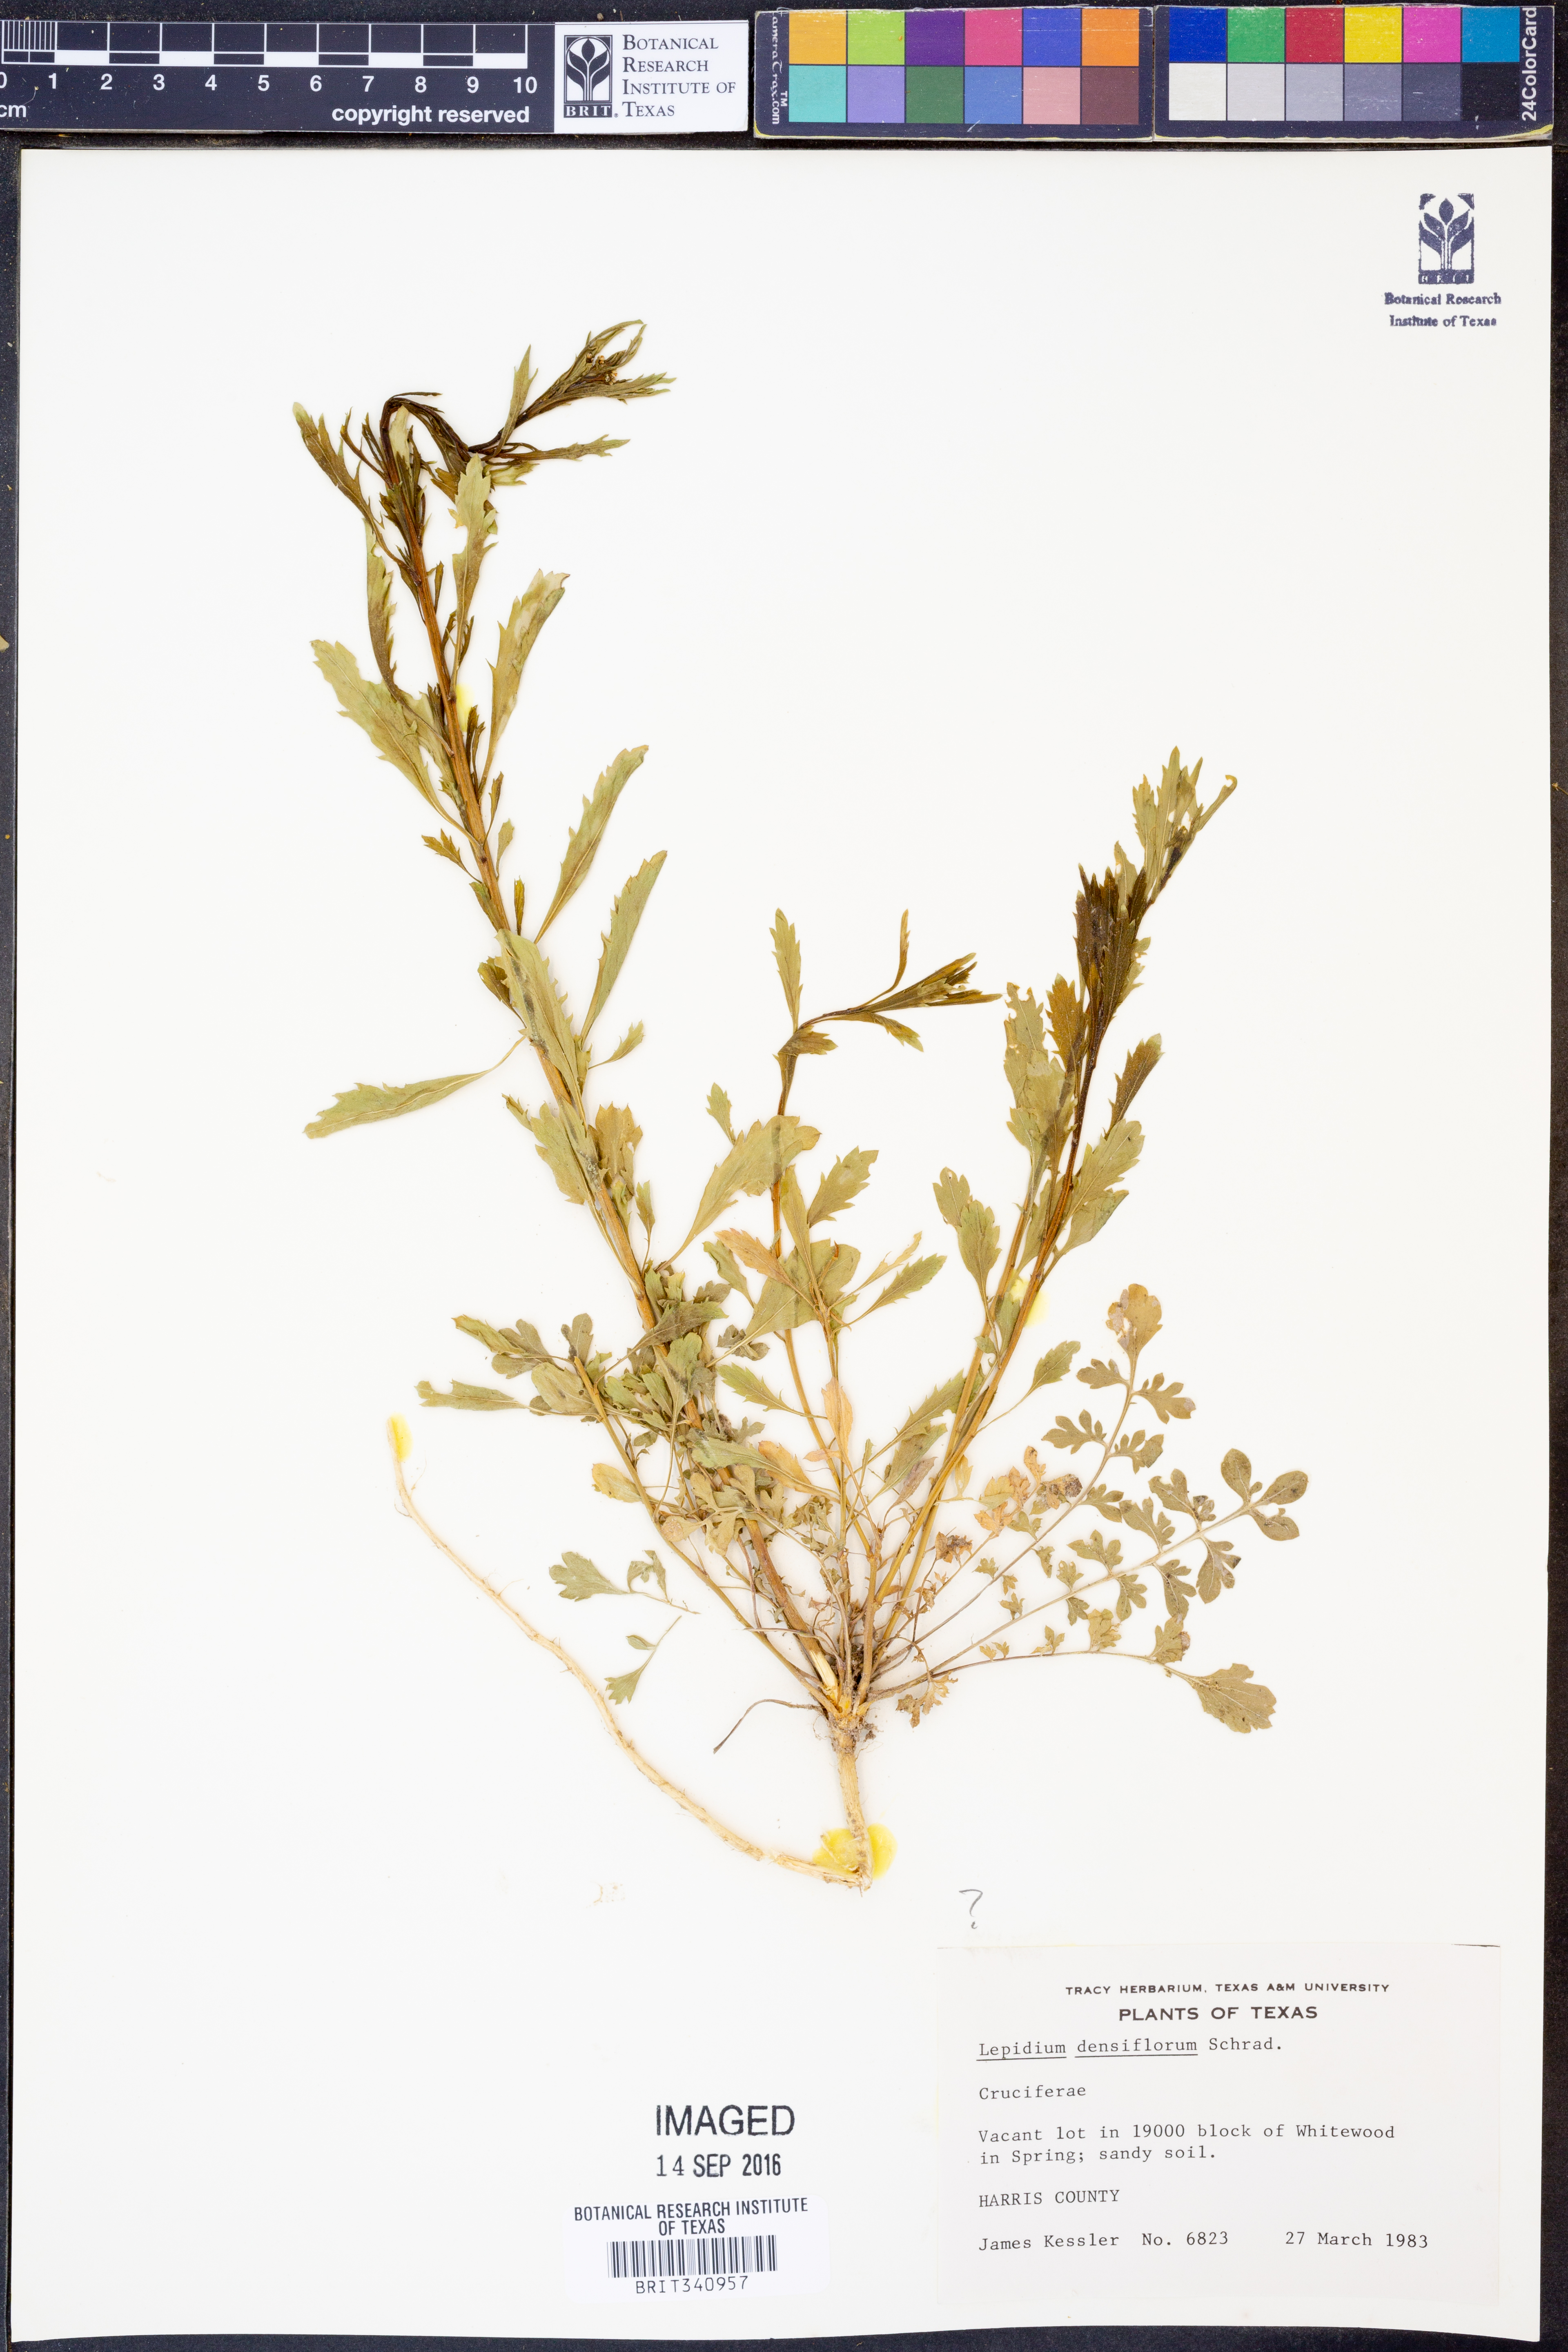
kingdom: Plantae
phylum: Tracheophyta
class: Magnoliopsida
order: Brassicales
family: Brassicaceae
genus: Lepidium
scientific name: Lepidium densiflorum
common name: Miner's pepperwort
